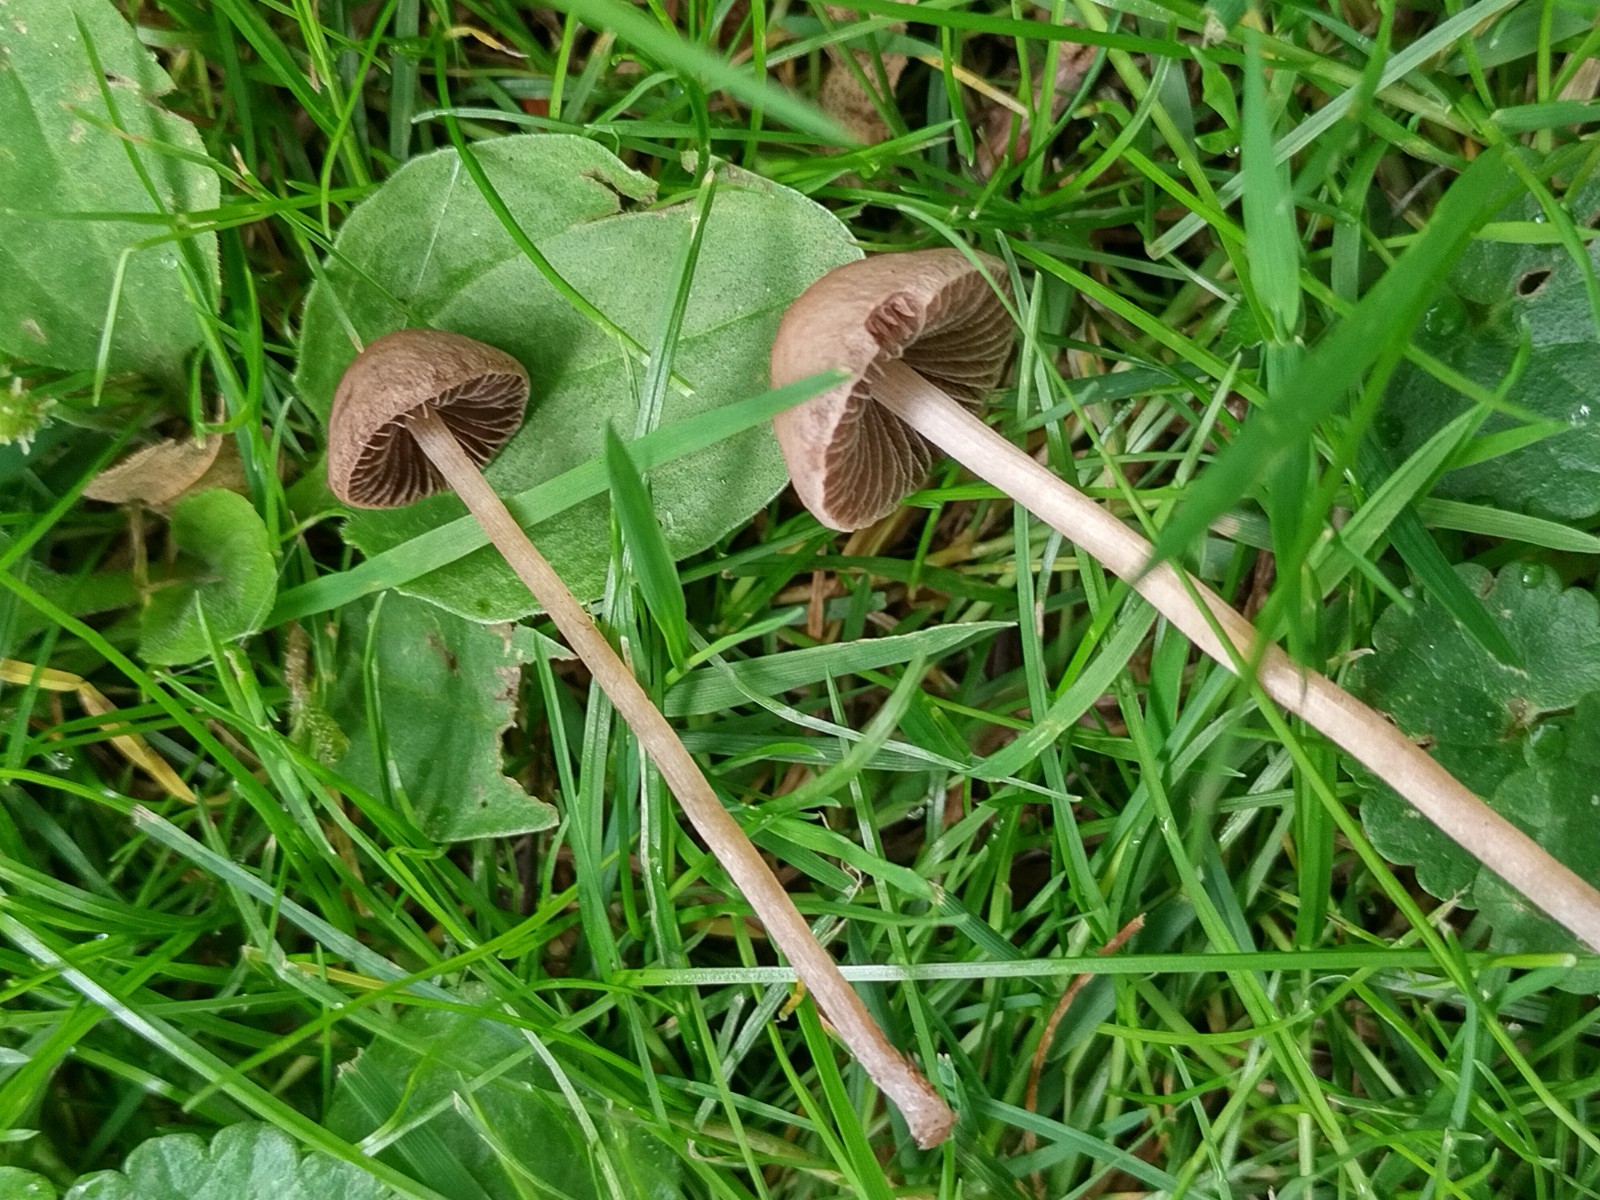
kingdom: Fungi
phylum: Basidiomycota
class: Agaricomycetes
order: Agaricales
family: Bolbitiaceae
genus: Panaeolina
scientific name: Panaeolina foenisecii
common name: høslætsvamp
